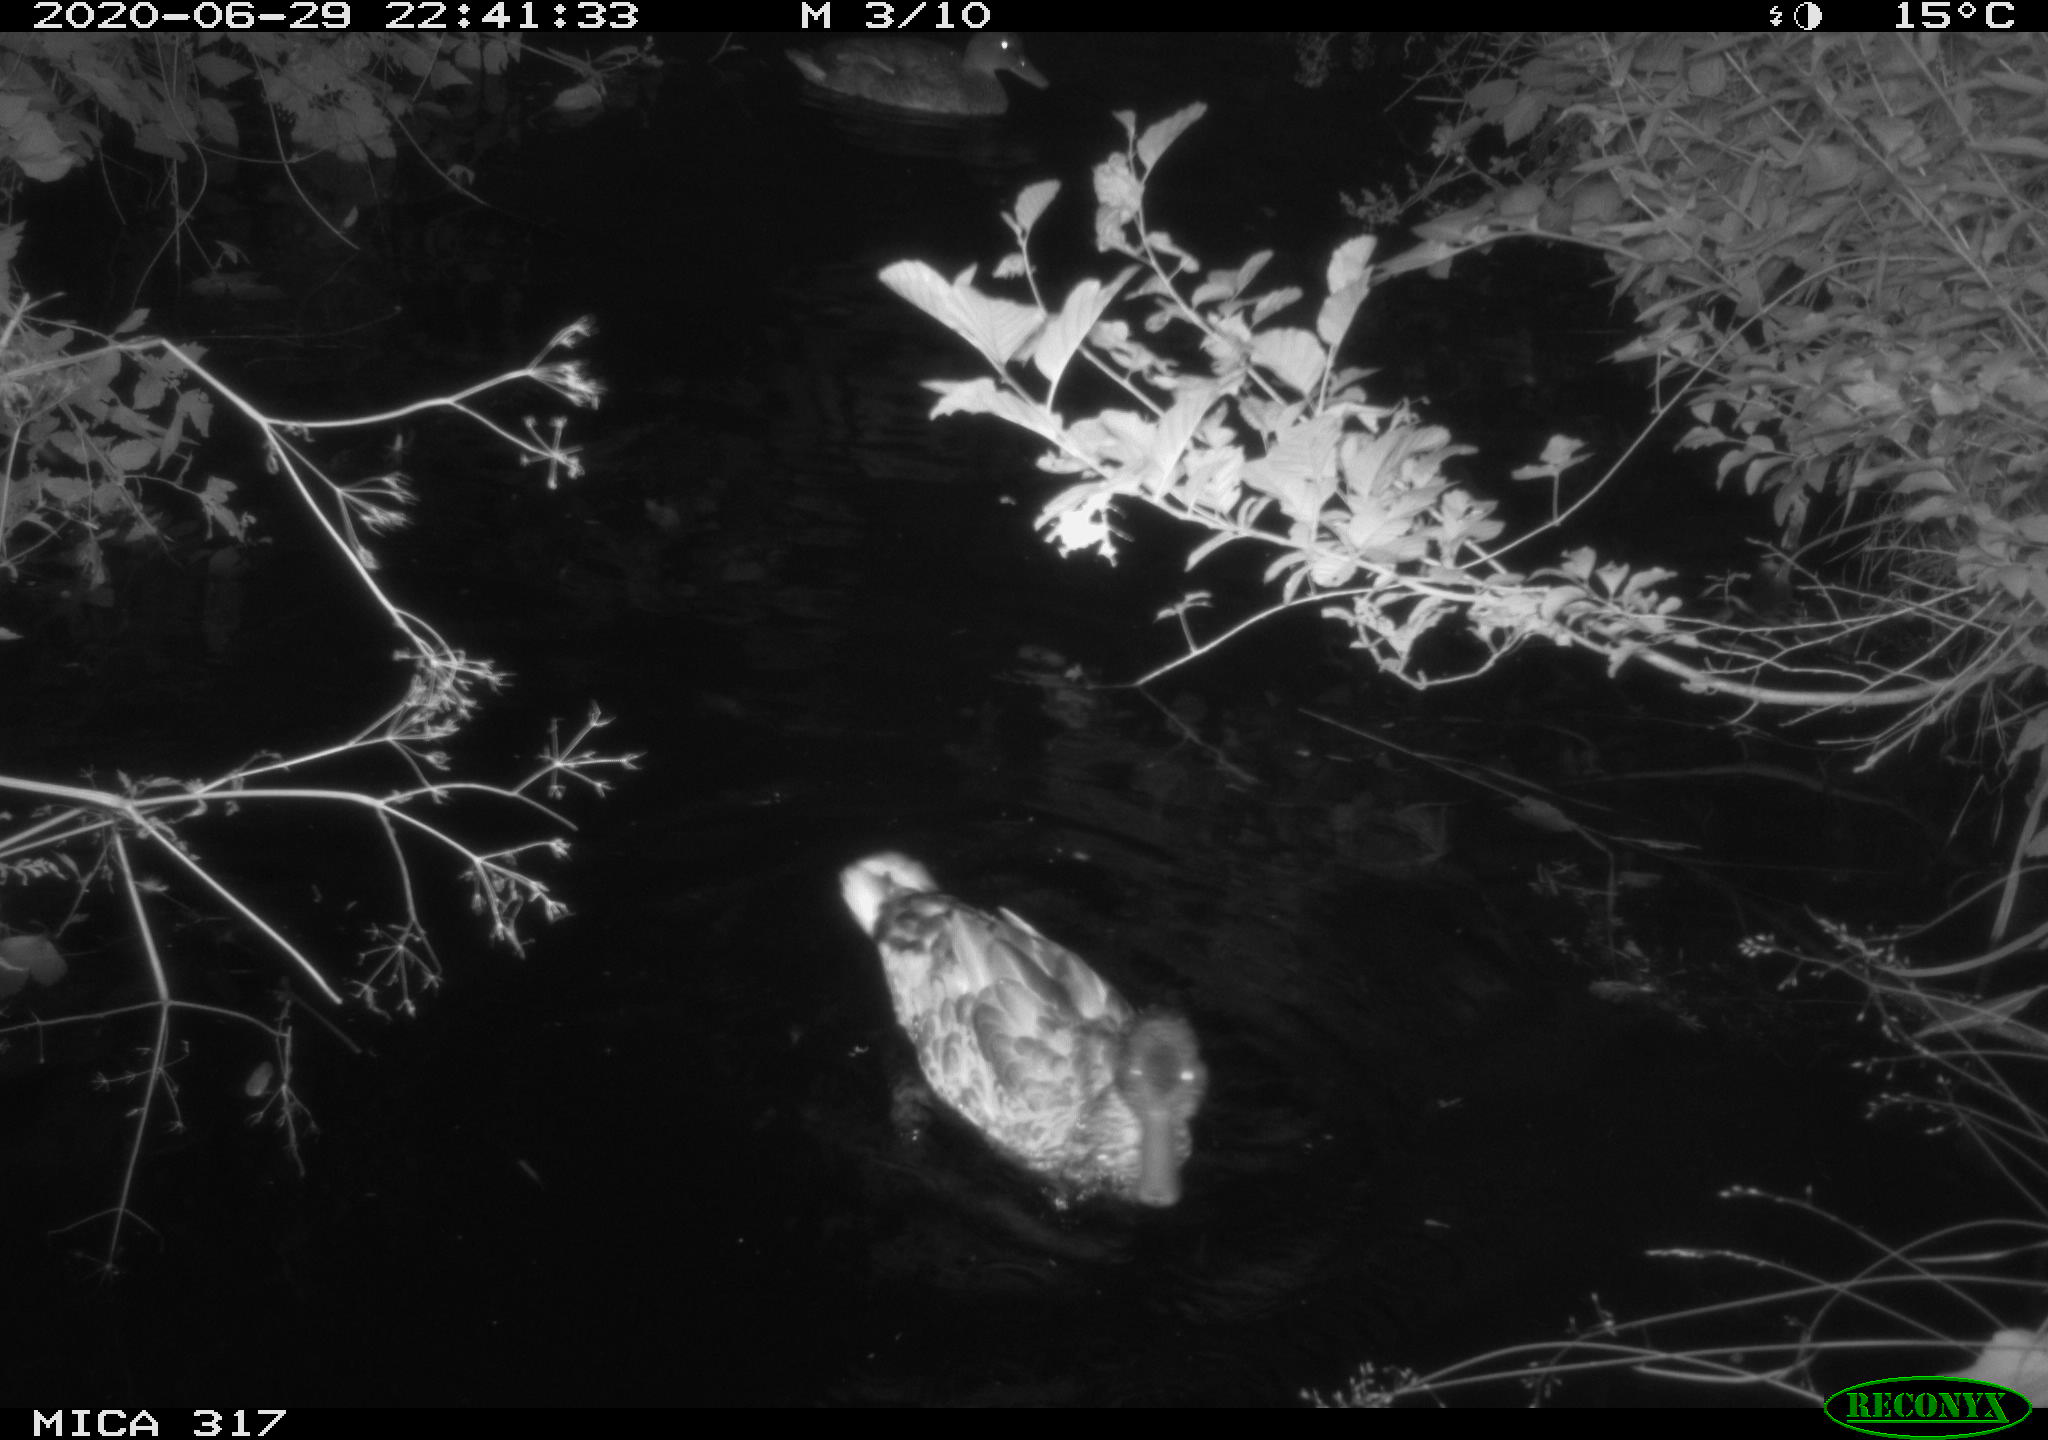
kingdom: Animalia
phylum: Chordata
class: Aves
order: Anseriformes
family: Anatidae
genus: Anas
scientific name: Anas platyrhynchos
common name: Mallard
